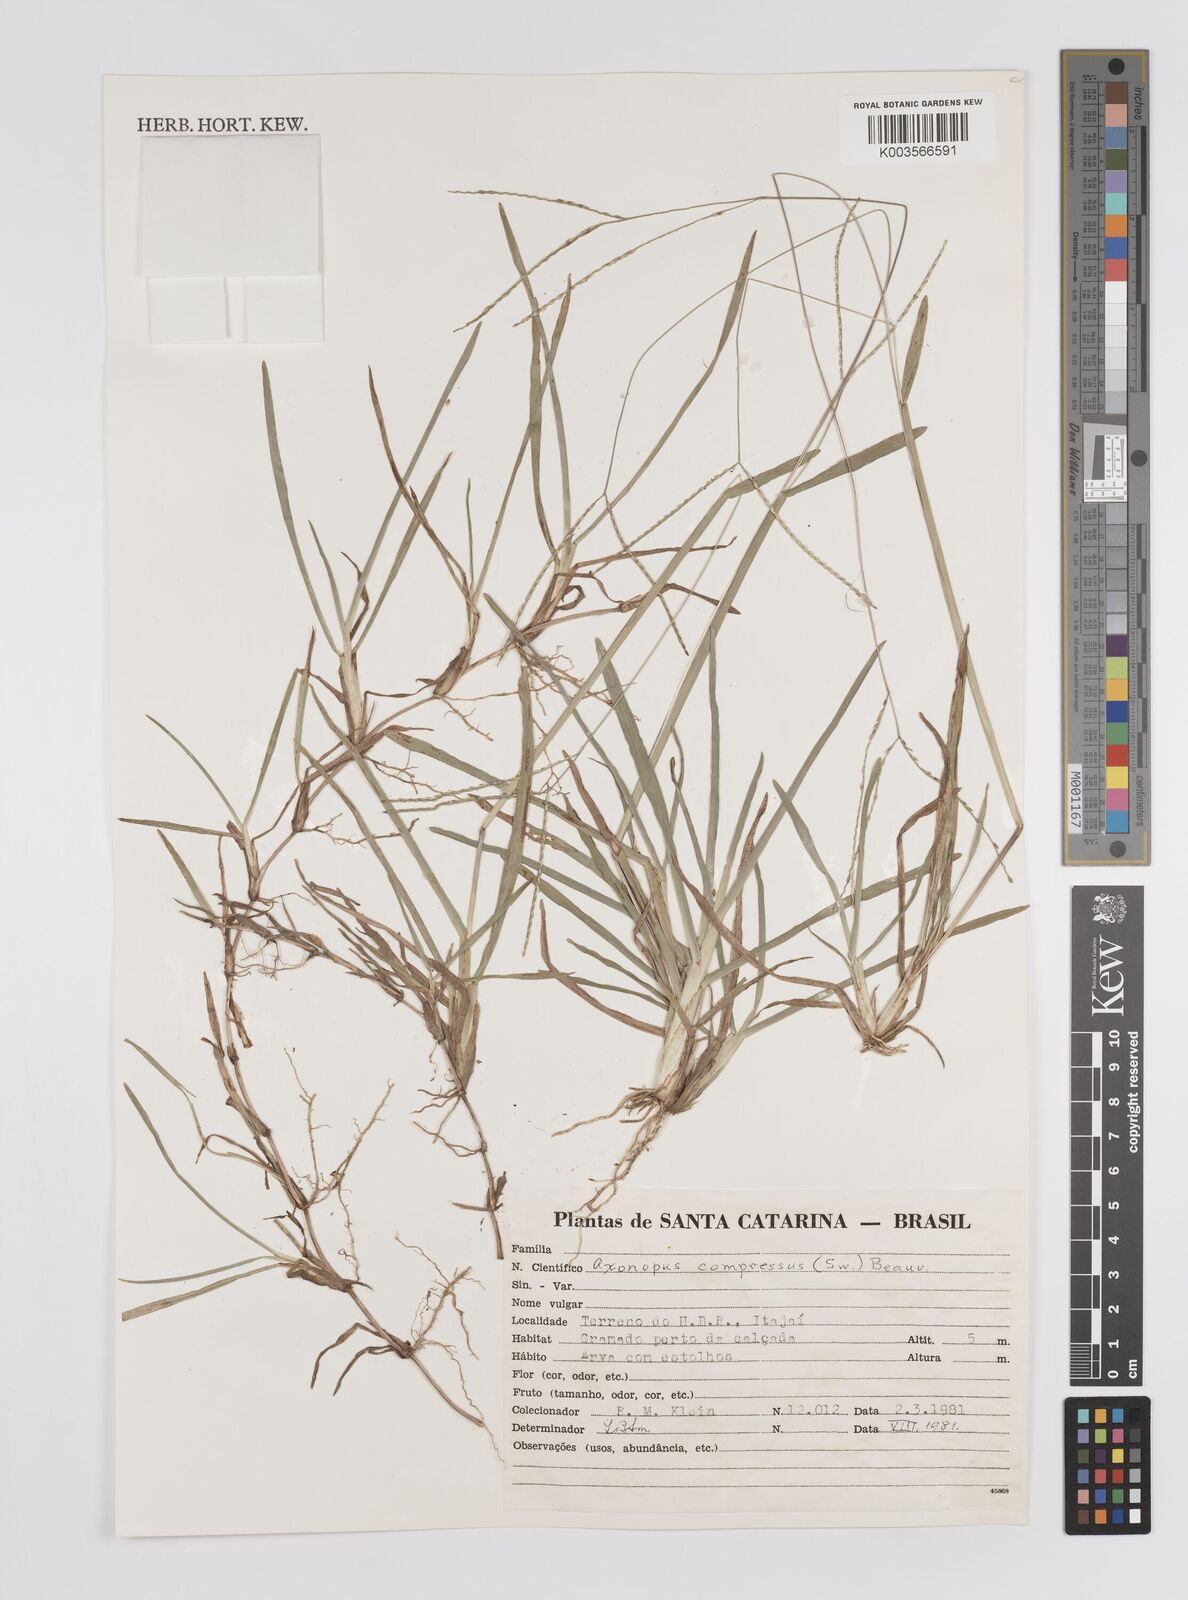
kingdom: Plantae
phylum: Tracheophyta
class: Liliopsida
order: Poales
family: Poaceae
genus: Axonopus
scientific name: Axonopus compressus
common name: American carpet grass
